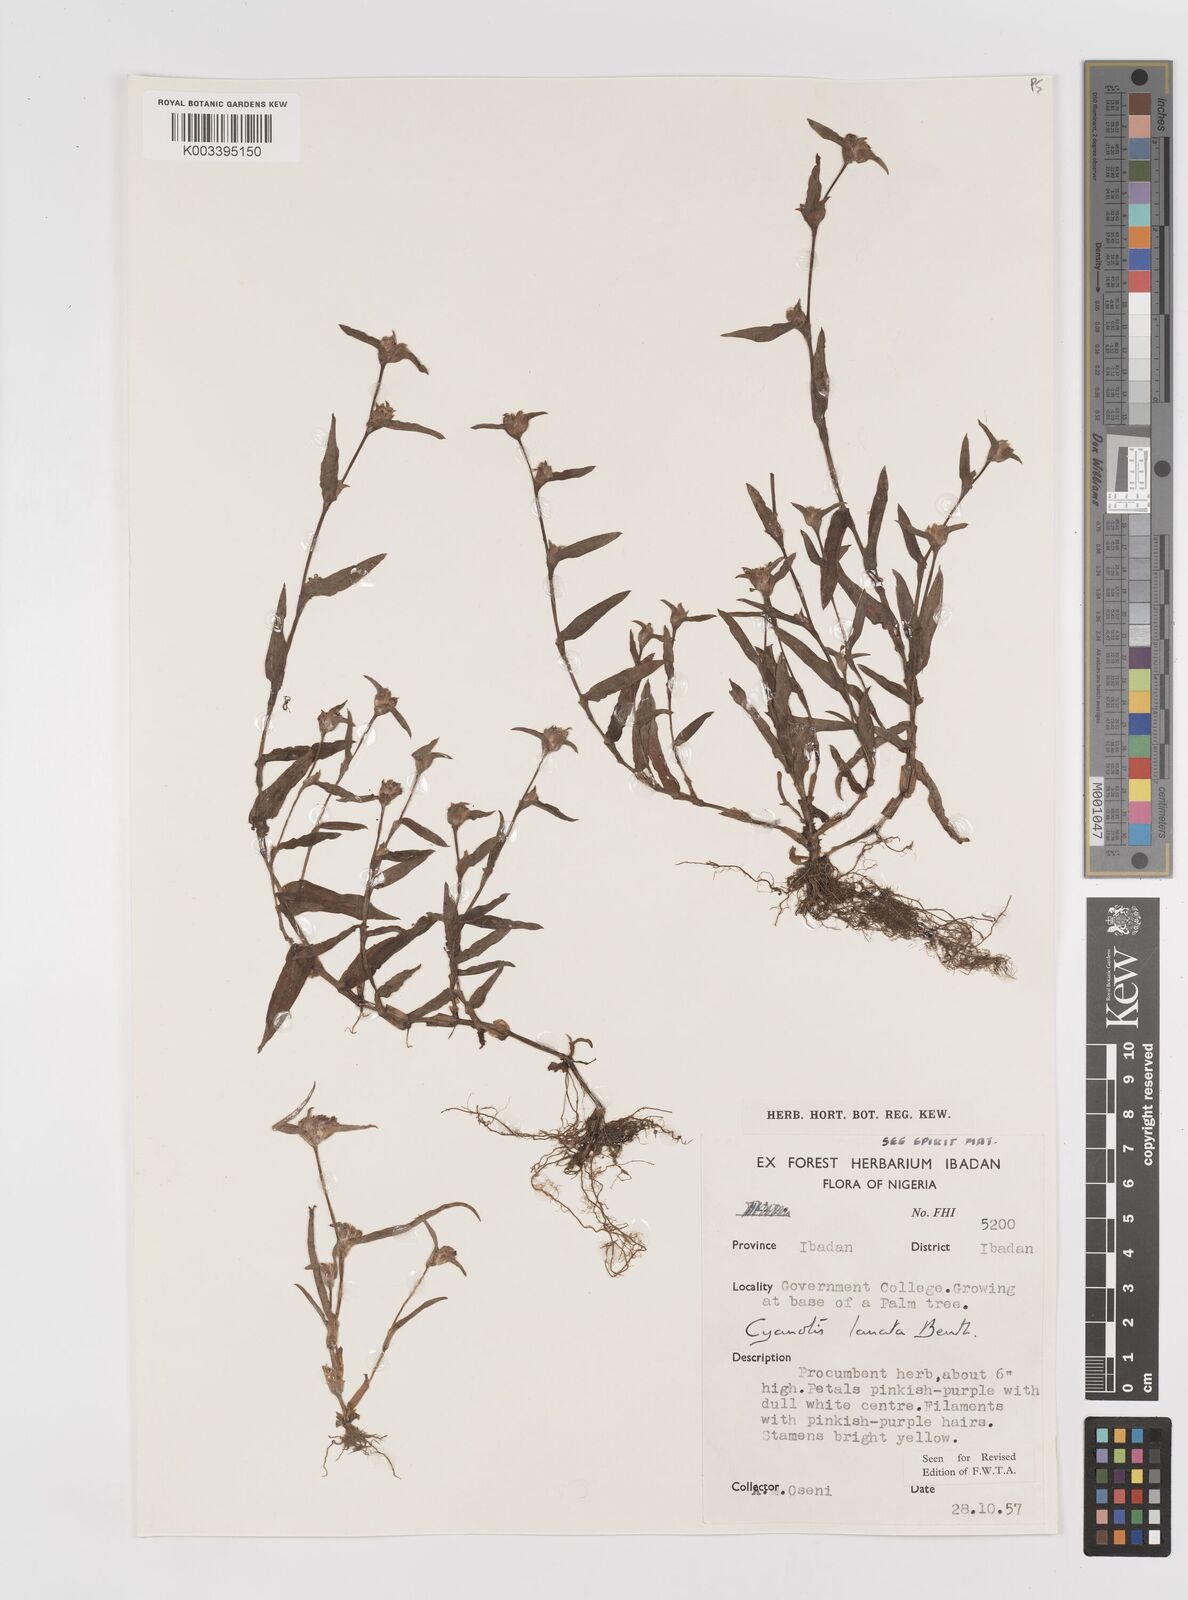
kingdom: Plantae
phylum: Tracheophyta
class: Liliopsida
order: Commelinales
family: Commelinaceae
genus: Cyanotis
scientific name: Cyanotis lanata
